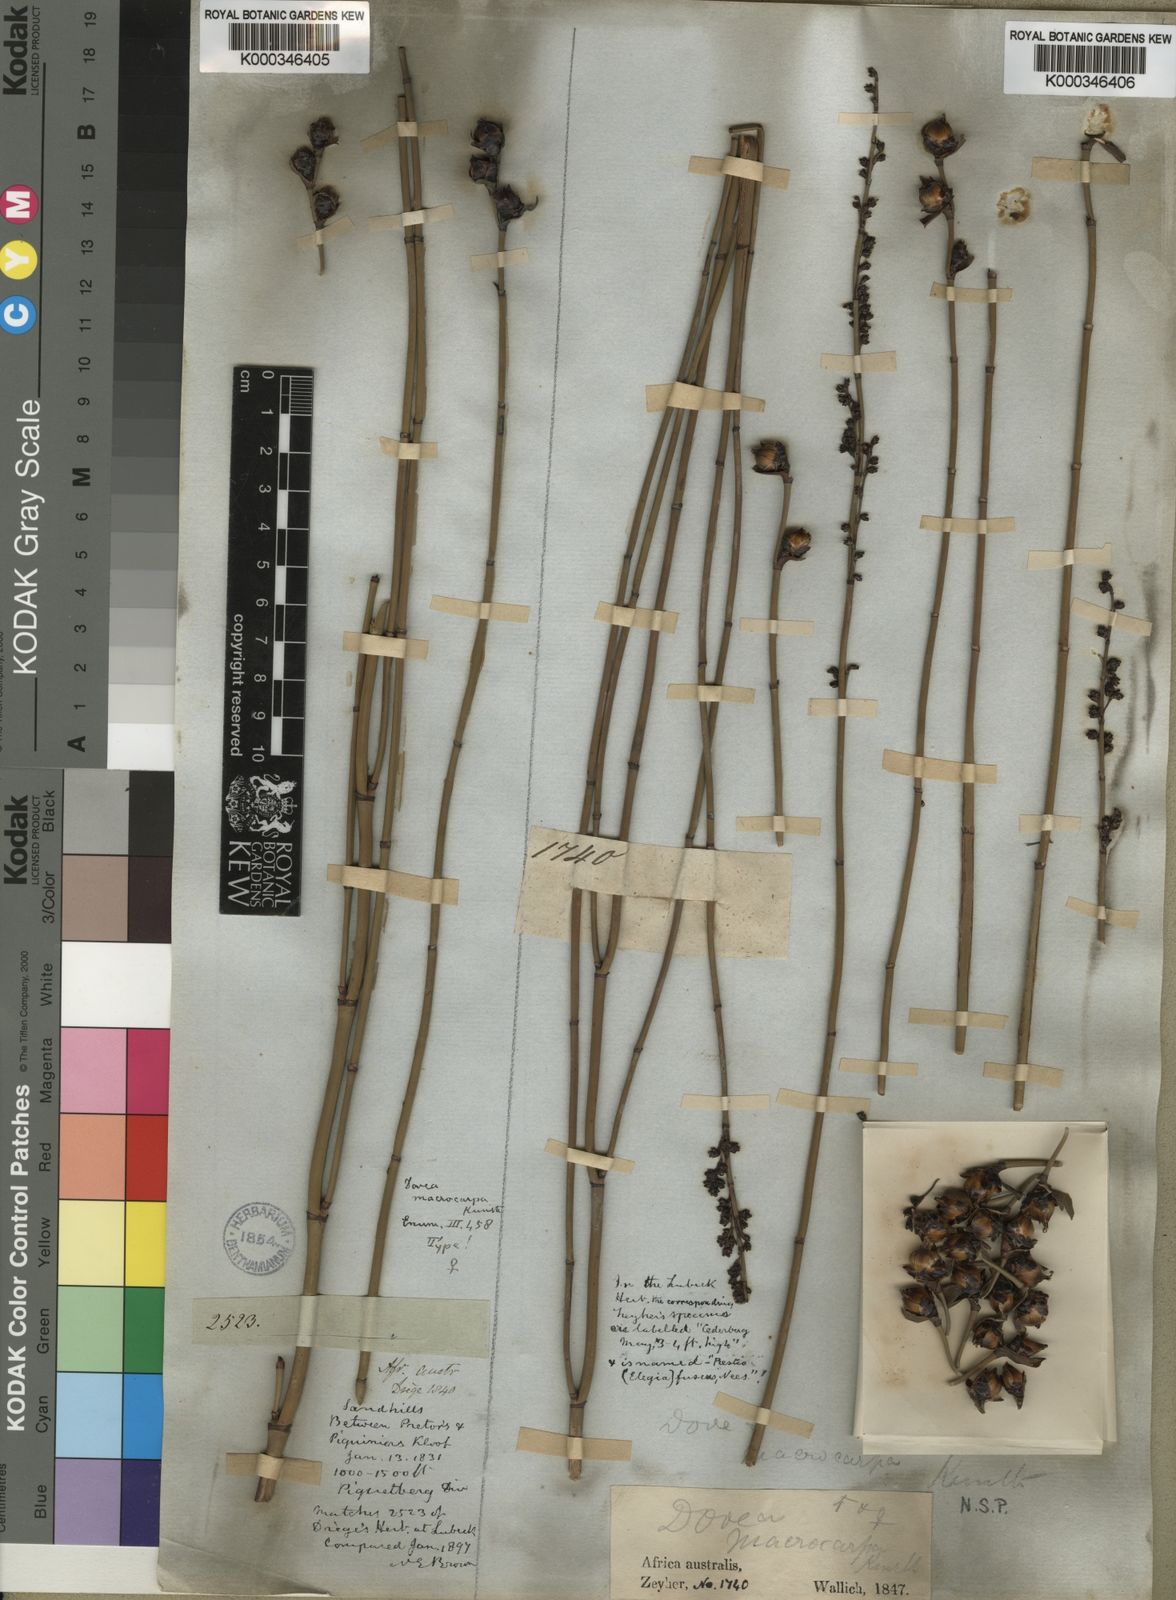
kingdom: Plantae
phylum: Tracheophyta
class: Liliopsida
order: Poales
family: Restionaceae
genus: Elegia
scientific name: Elegia macrocarpa
